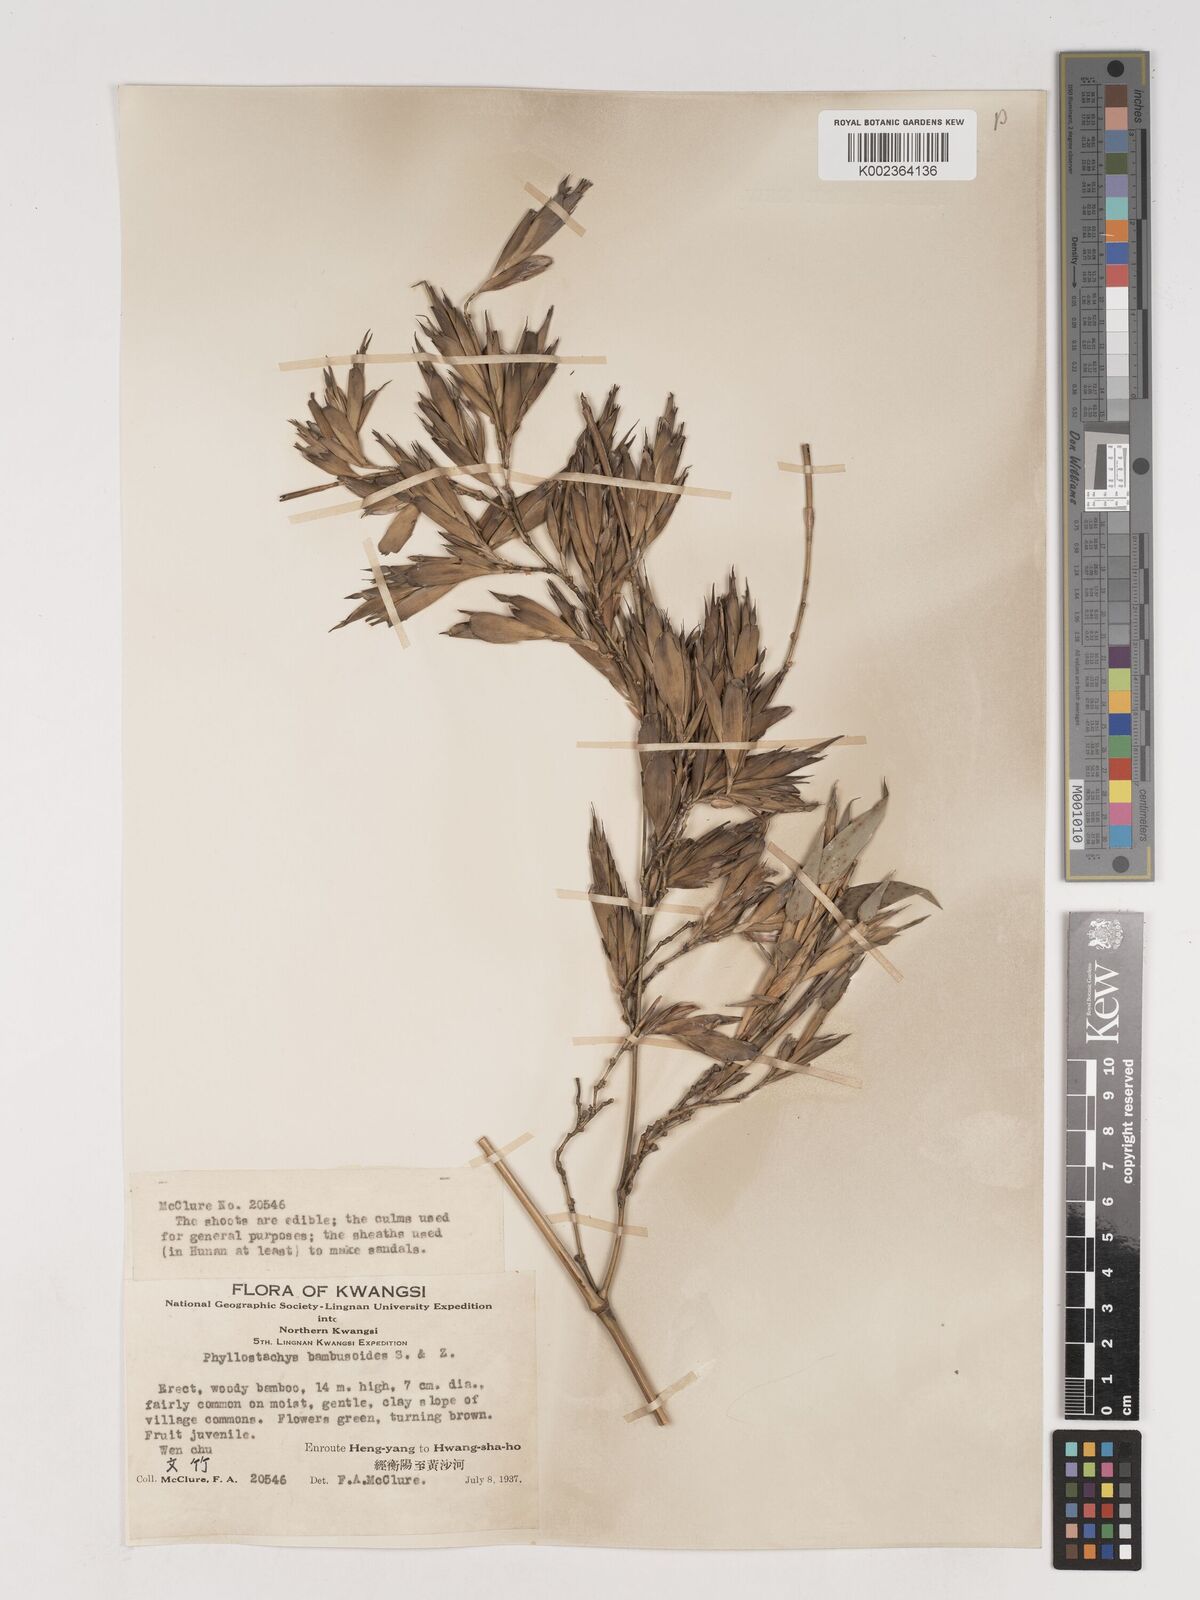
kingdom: Plantae
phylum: Tracheophyta
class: Liliopsida
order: Poales
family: Poaceae
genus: Phyllostachys
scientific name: Phyllostachys reticulata
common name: Bamboo
